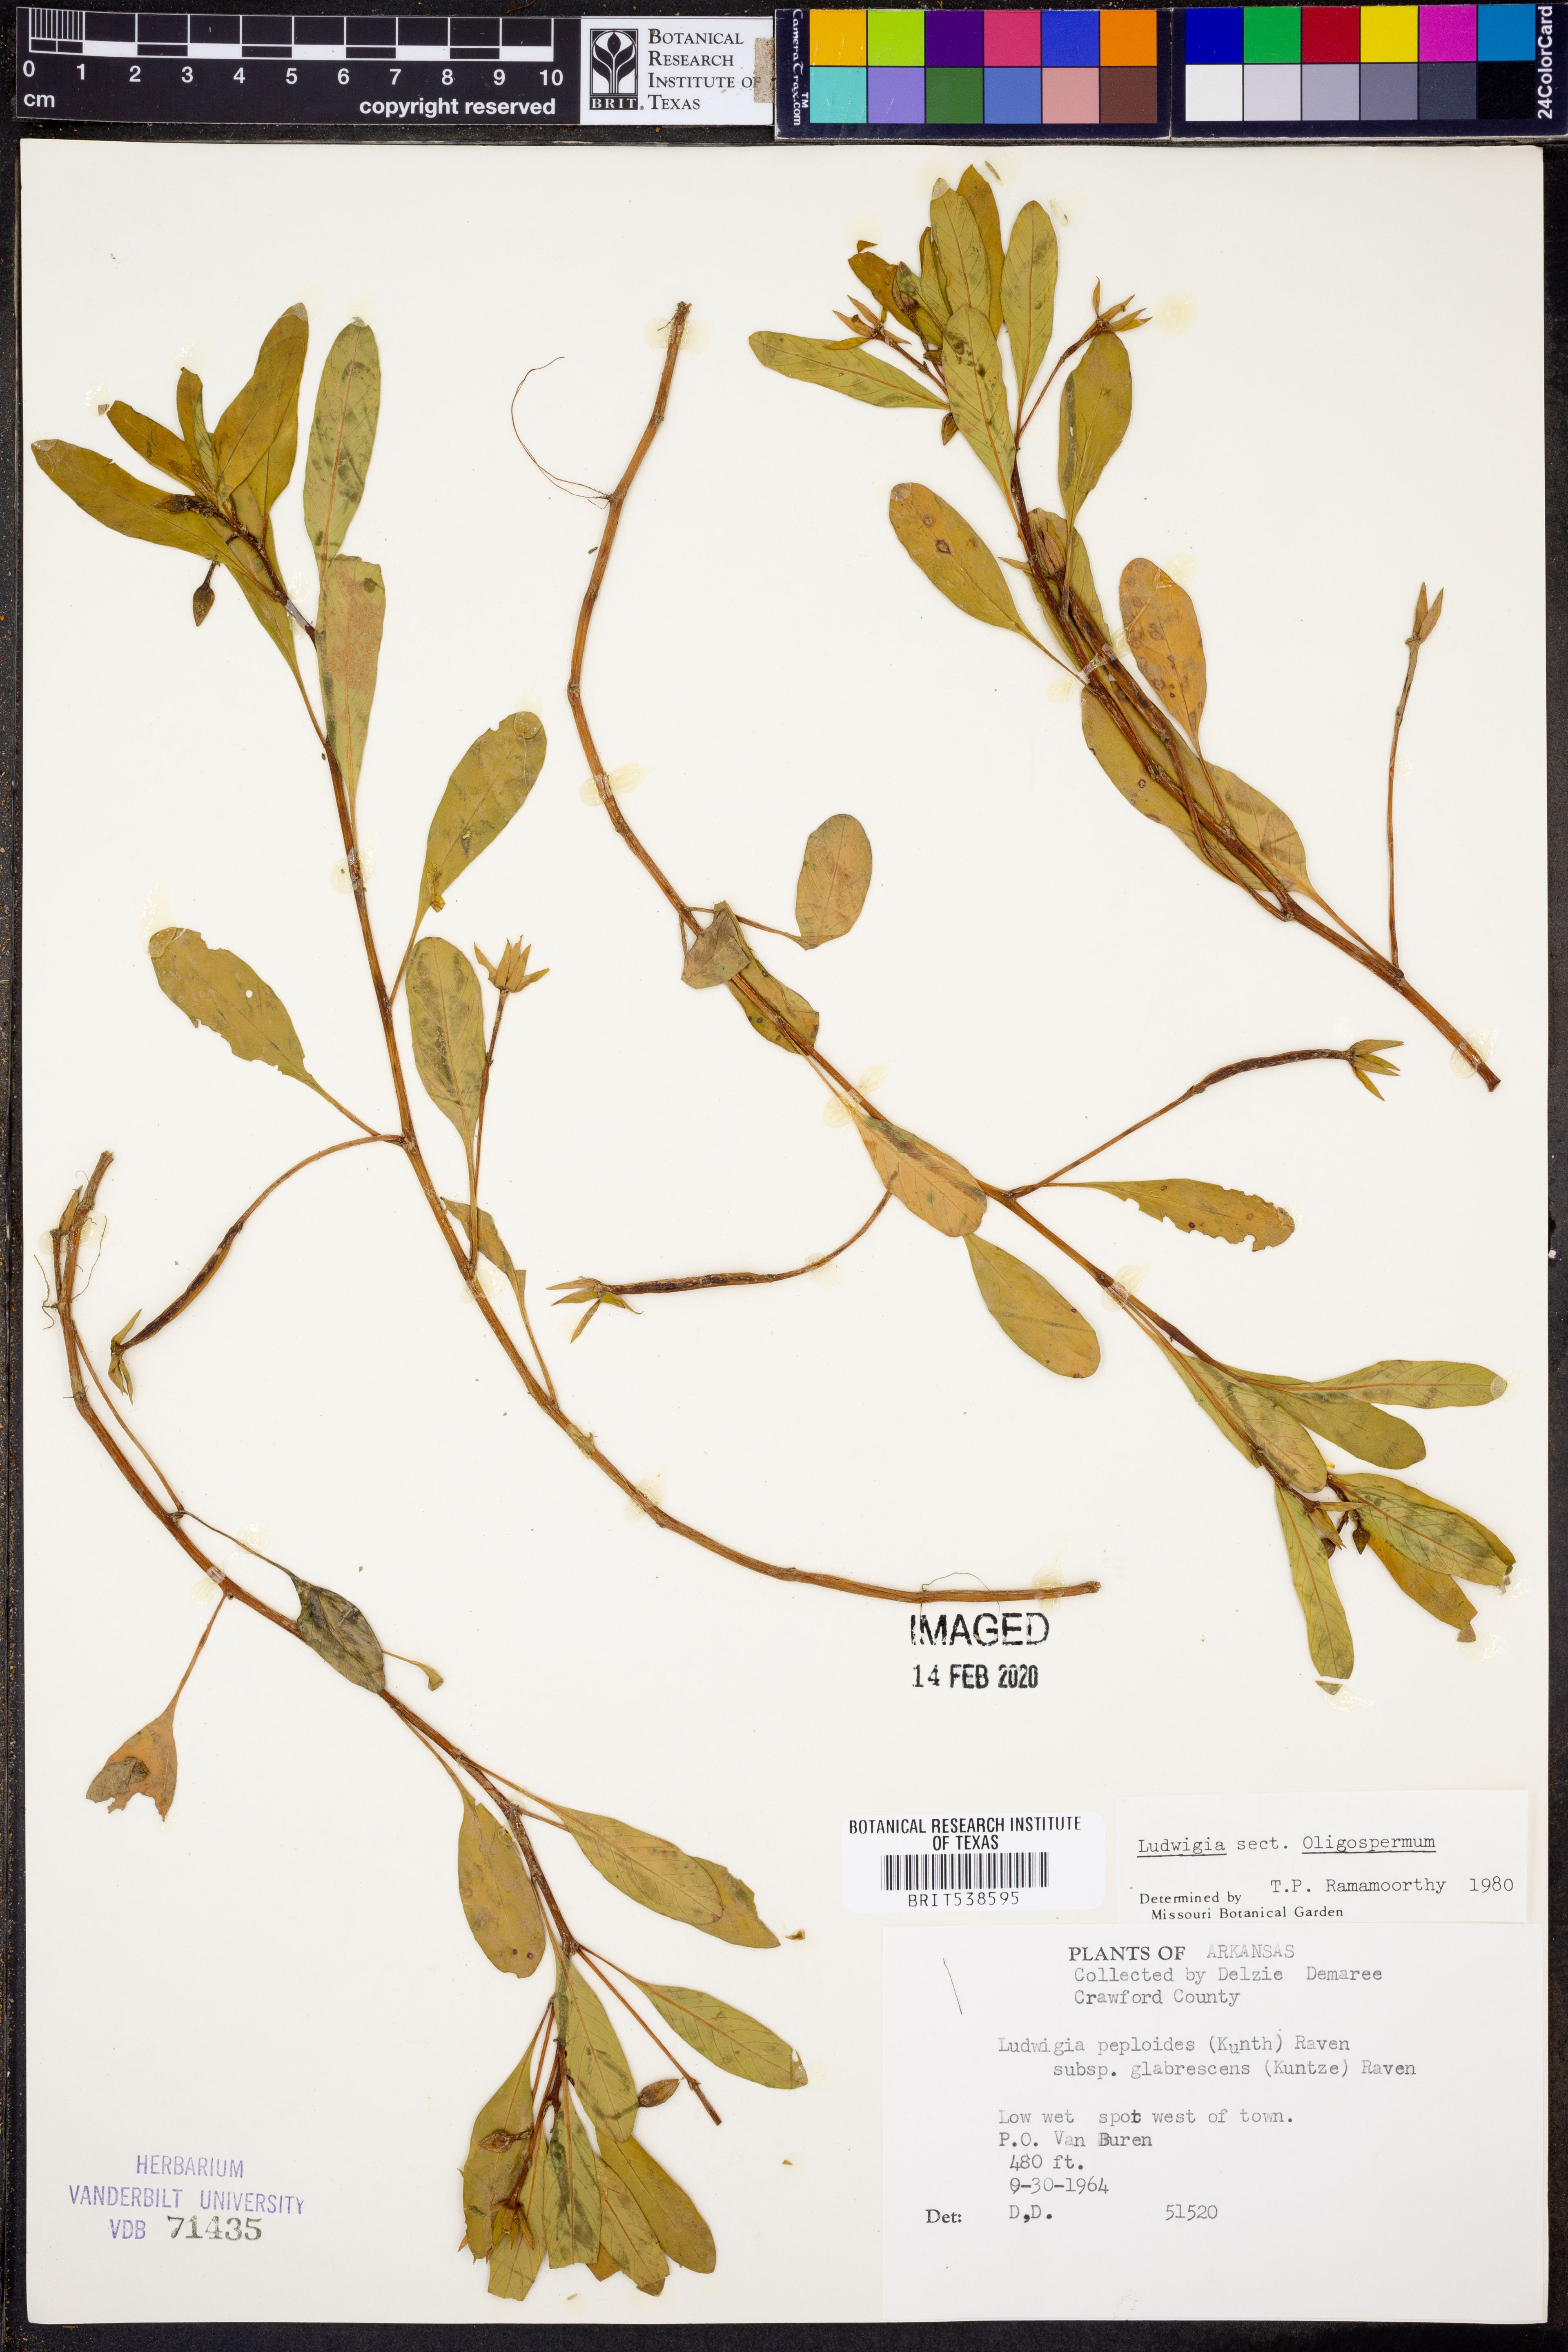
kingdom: Plantae
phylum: Tracheophyta
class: Magnoliopsida
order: Myrtales
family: Onagraceae
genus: Ludwigia
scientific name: Ludwigia peploides
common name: Floating primrose-willow
